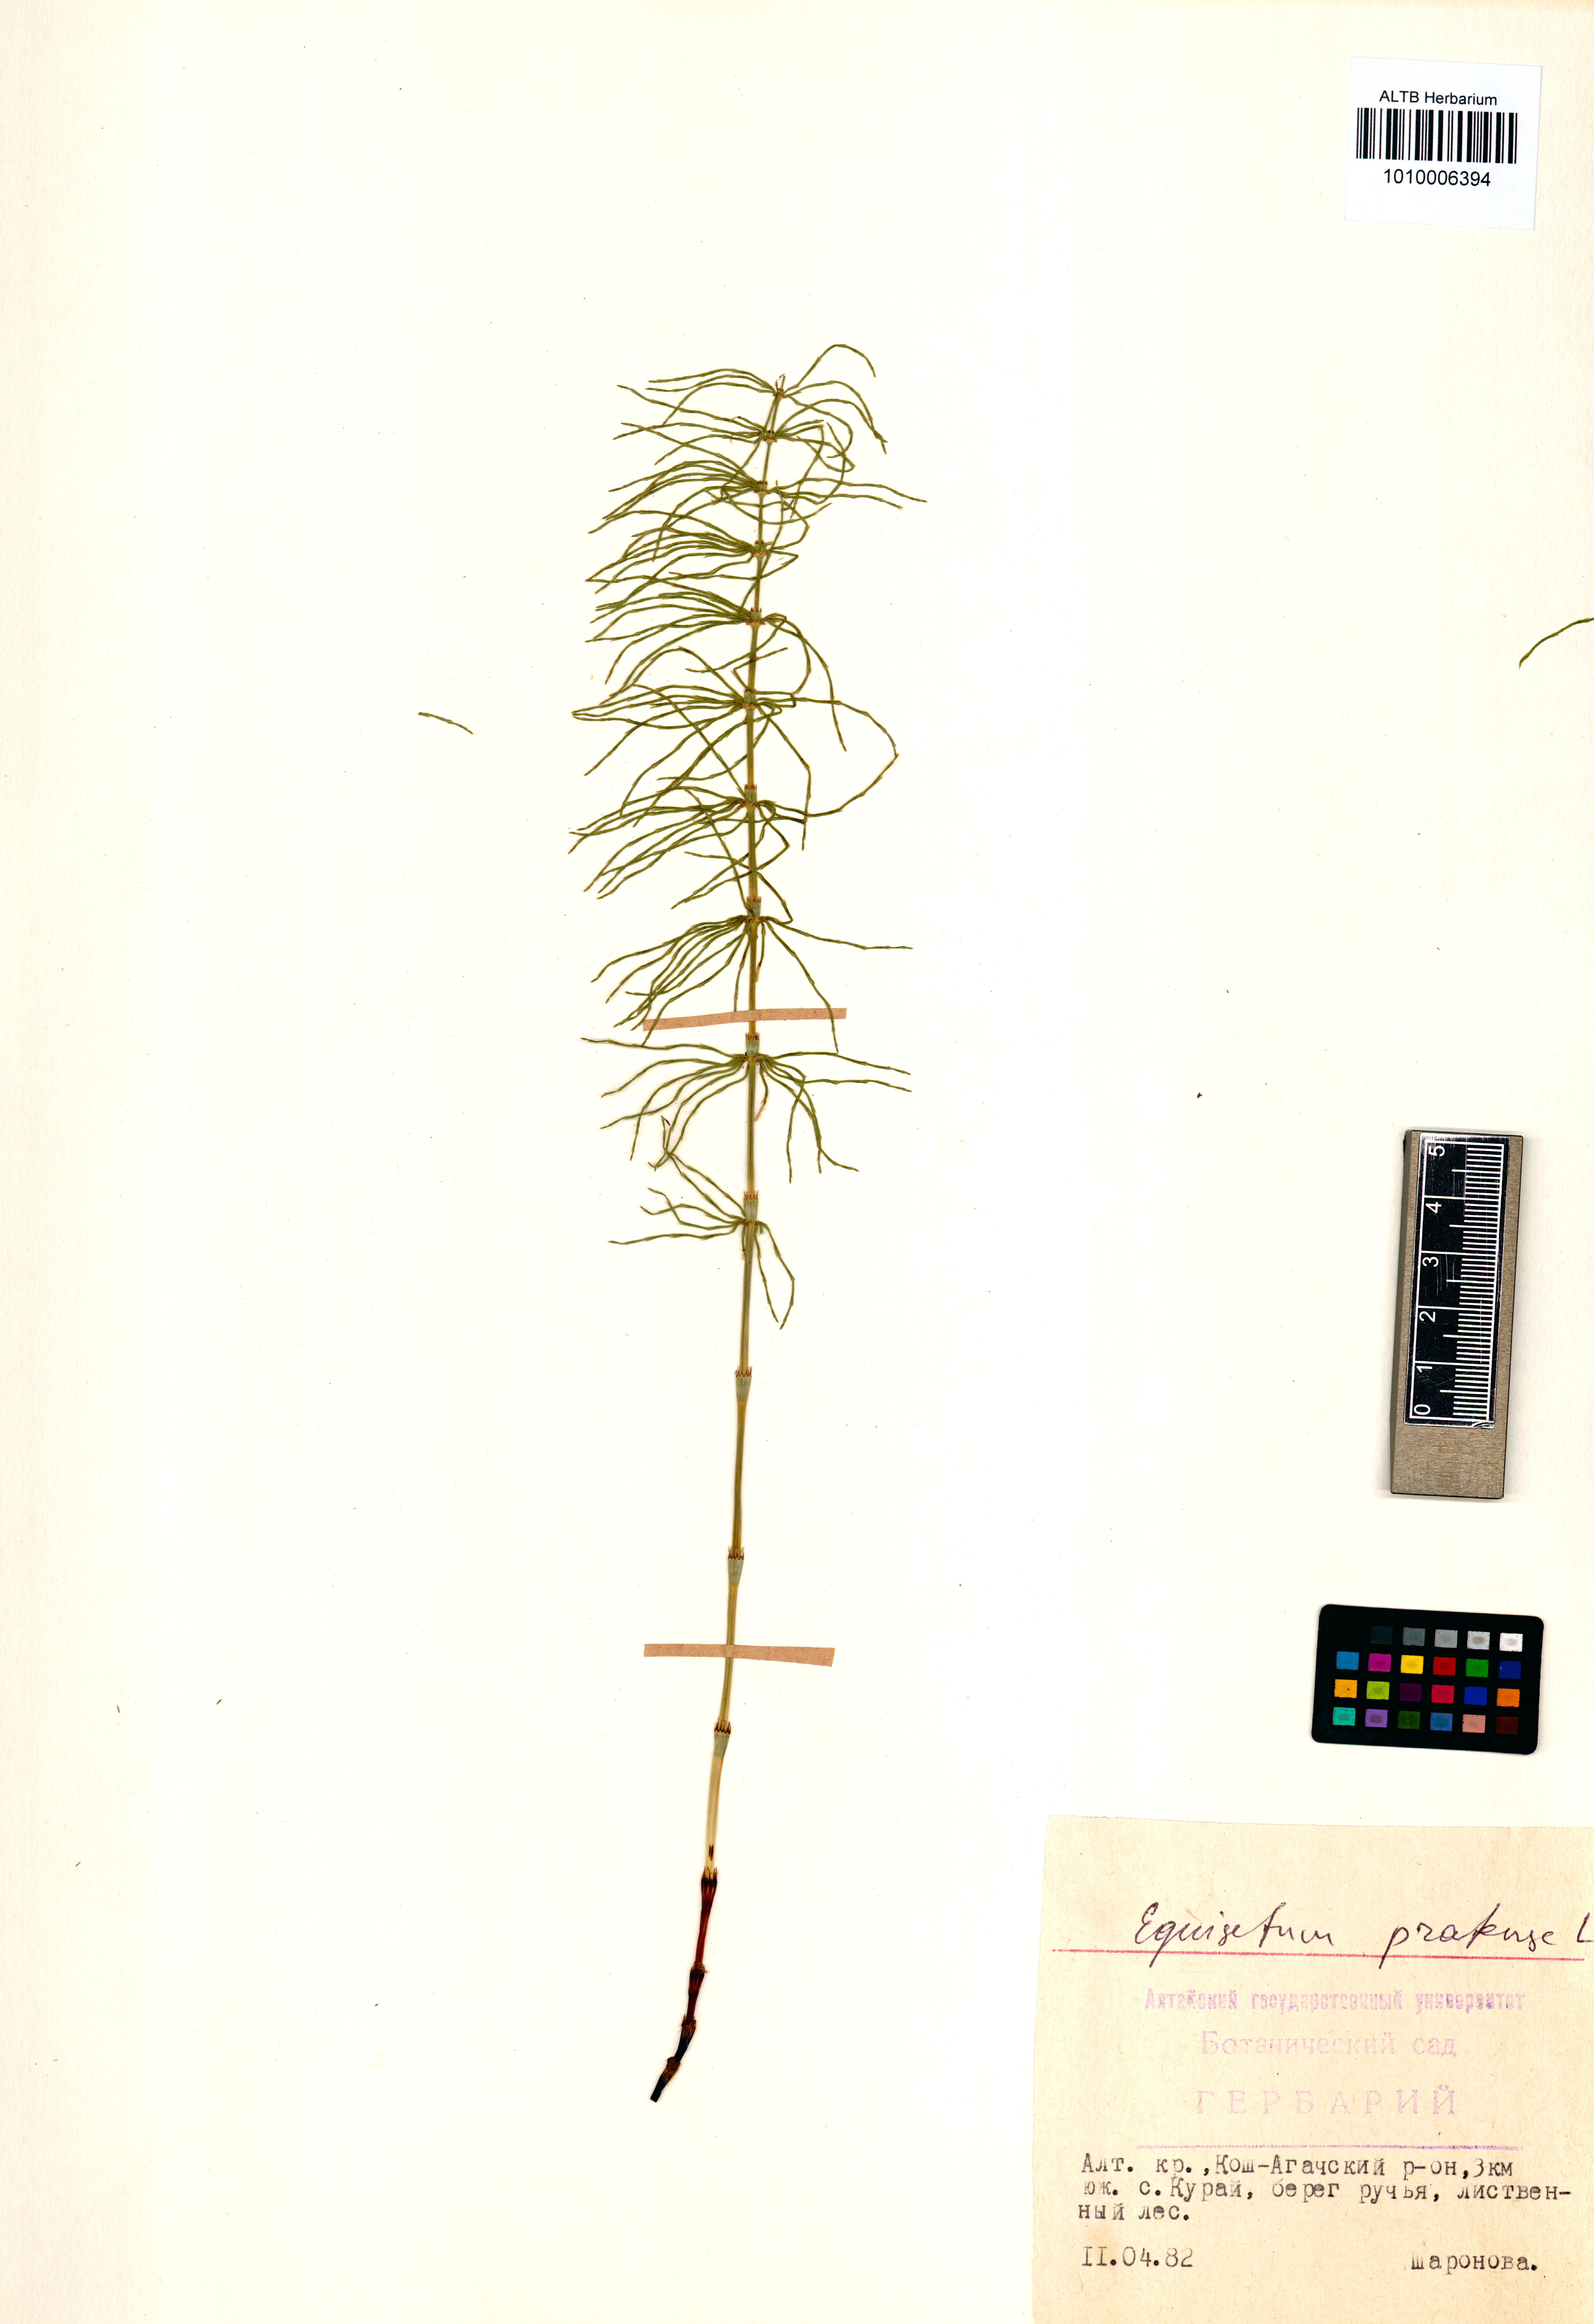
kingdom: Plantae
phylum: Tracheophyta
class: Polypodiopsida
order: Equisetales
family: Equisetaceae
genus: Equisetum
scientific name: Equisetum pratense
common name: Meadow horsetail
